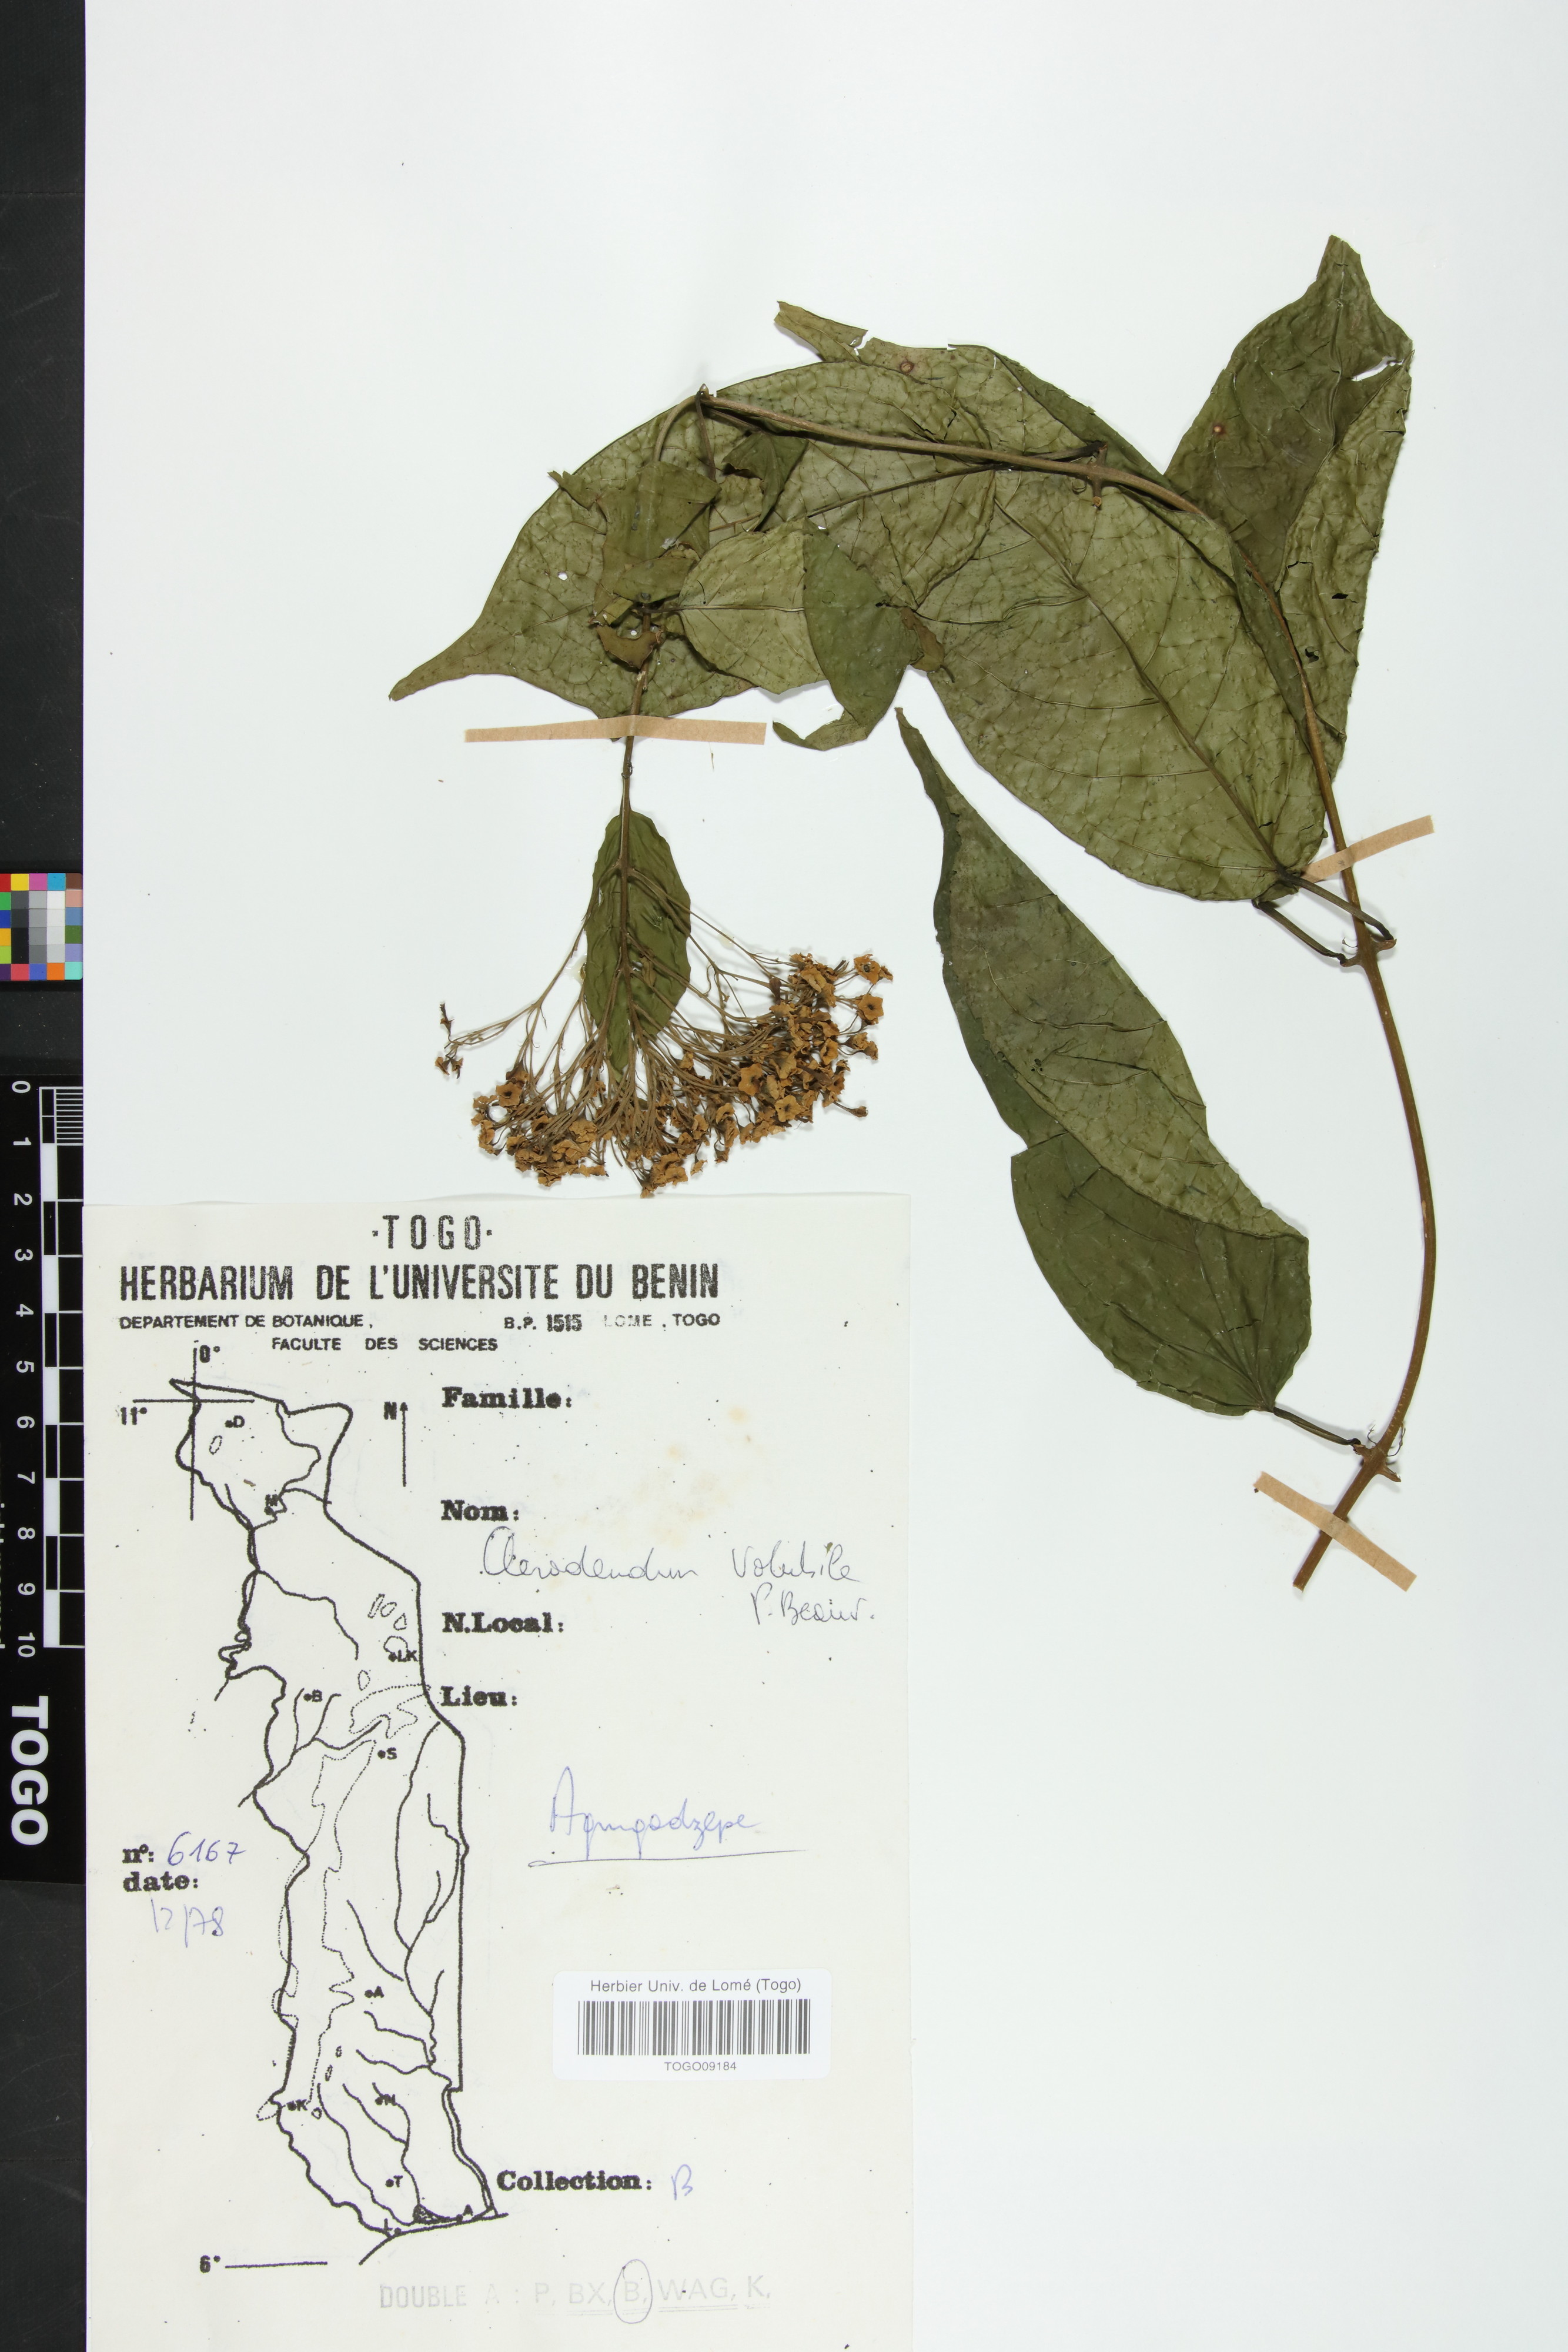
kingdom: Plantae
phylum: Tracheophyta
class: Magnoliopsida
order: Lamiales
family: Lamiaceae
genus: Clerodendrum
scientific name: Clerodendrum volubile
